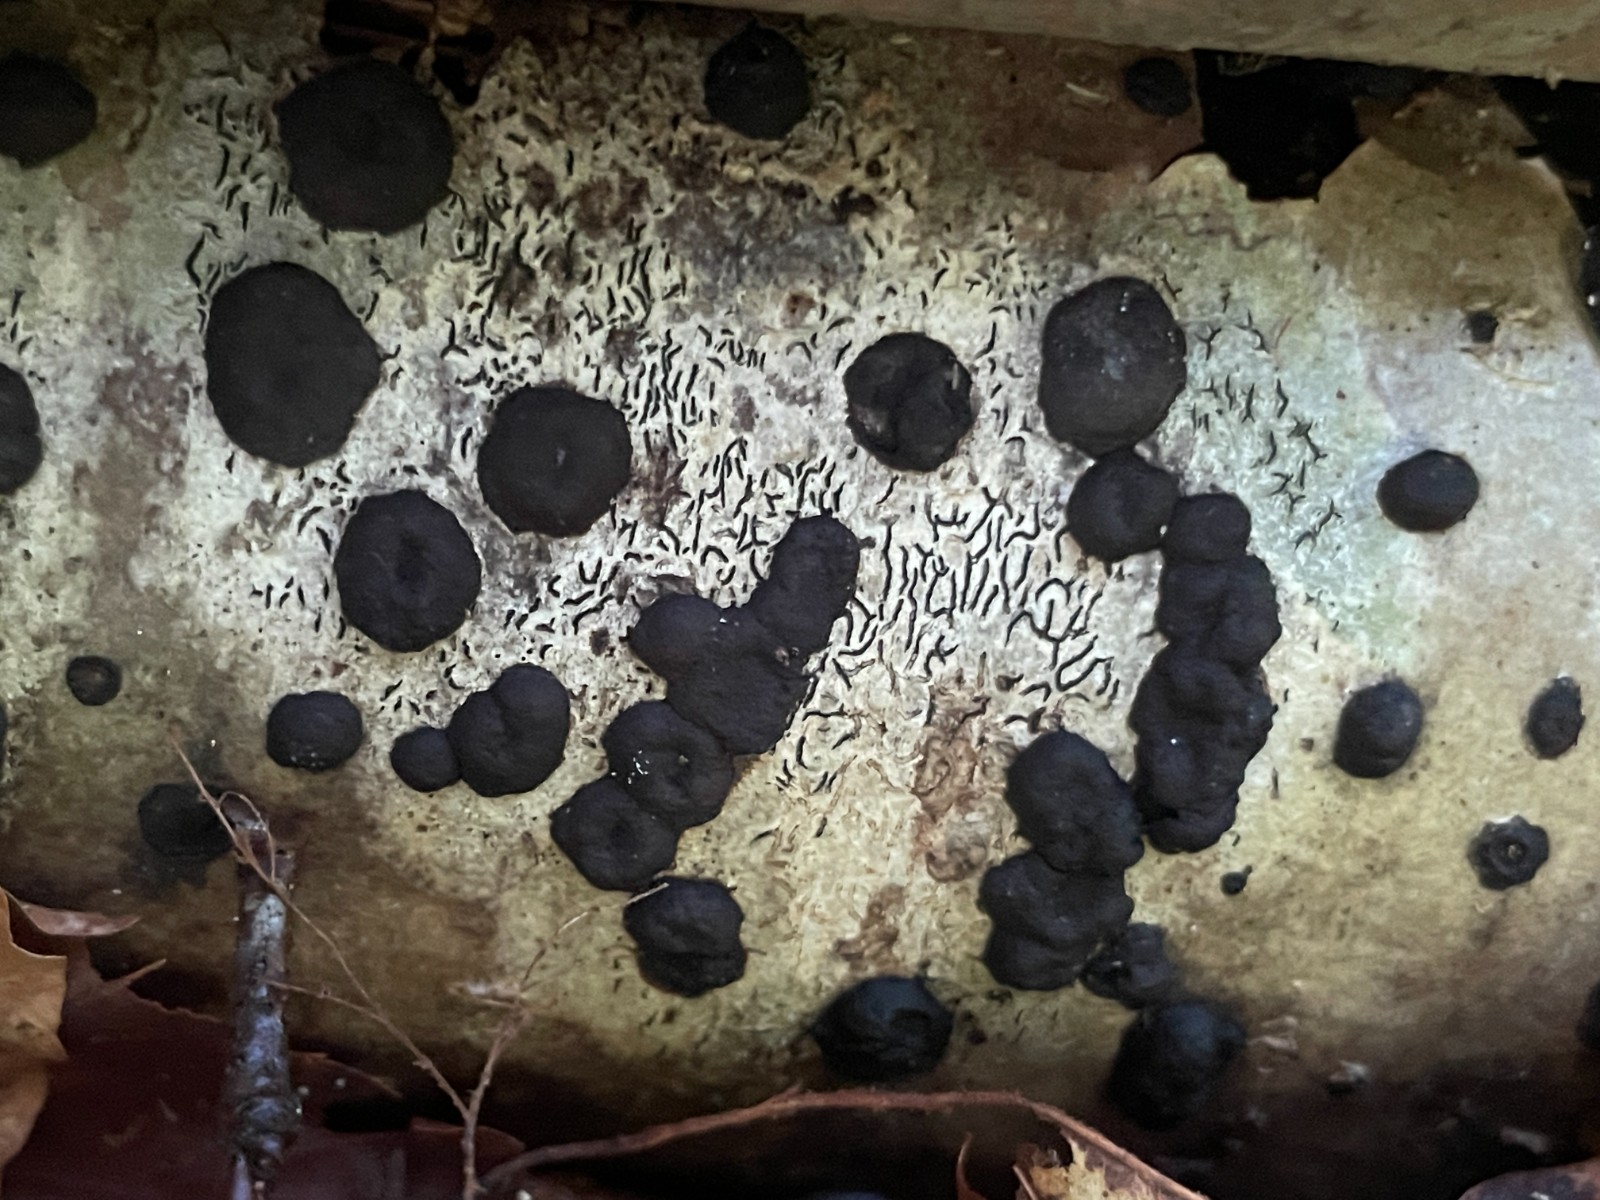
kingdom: Fungi
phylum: Ascomycota
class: Sordariomycetes
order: Xylariales
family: Hypoxylaceae
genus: Hypoxylon
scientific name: Hypoxylon fuscum
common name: kegleformet kulbær
